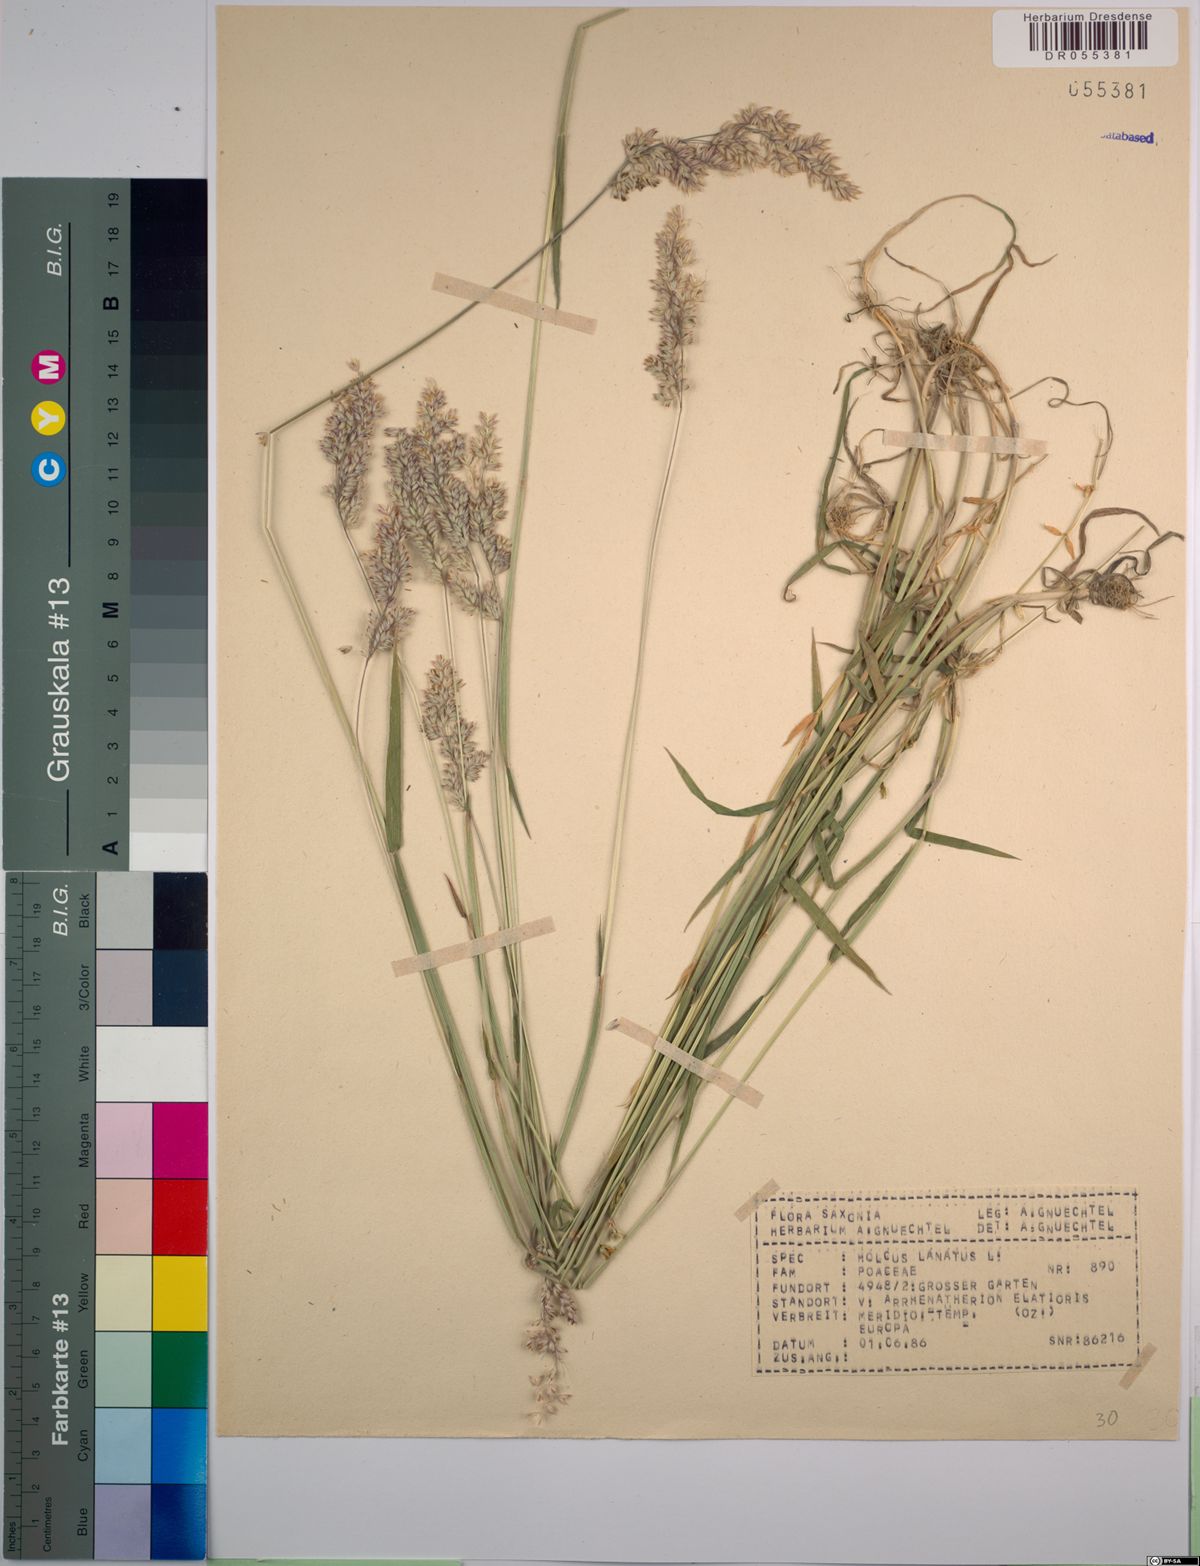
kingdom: Plantae
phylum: Tracheophyta
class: Liliopsida
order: Poales
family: Poaceae
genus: Holcus
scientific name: Holcus lanatus
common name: Yorkshire-fog
